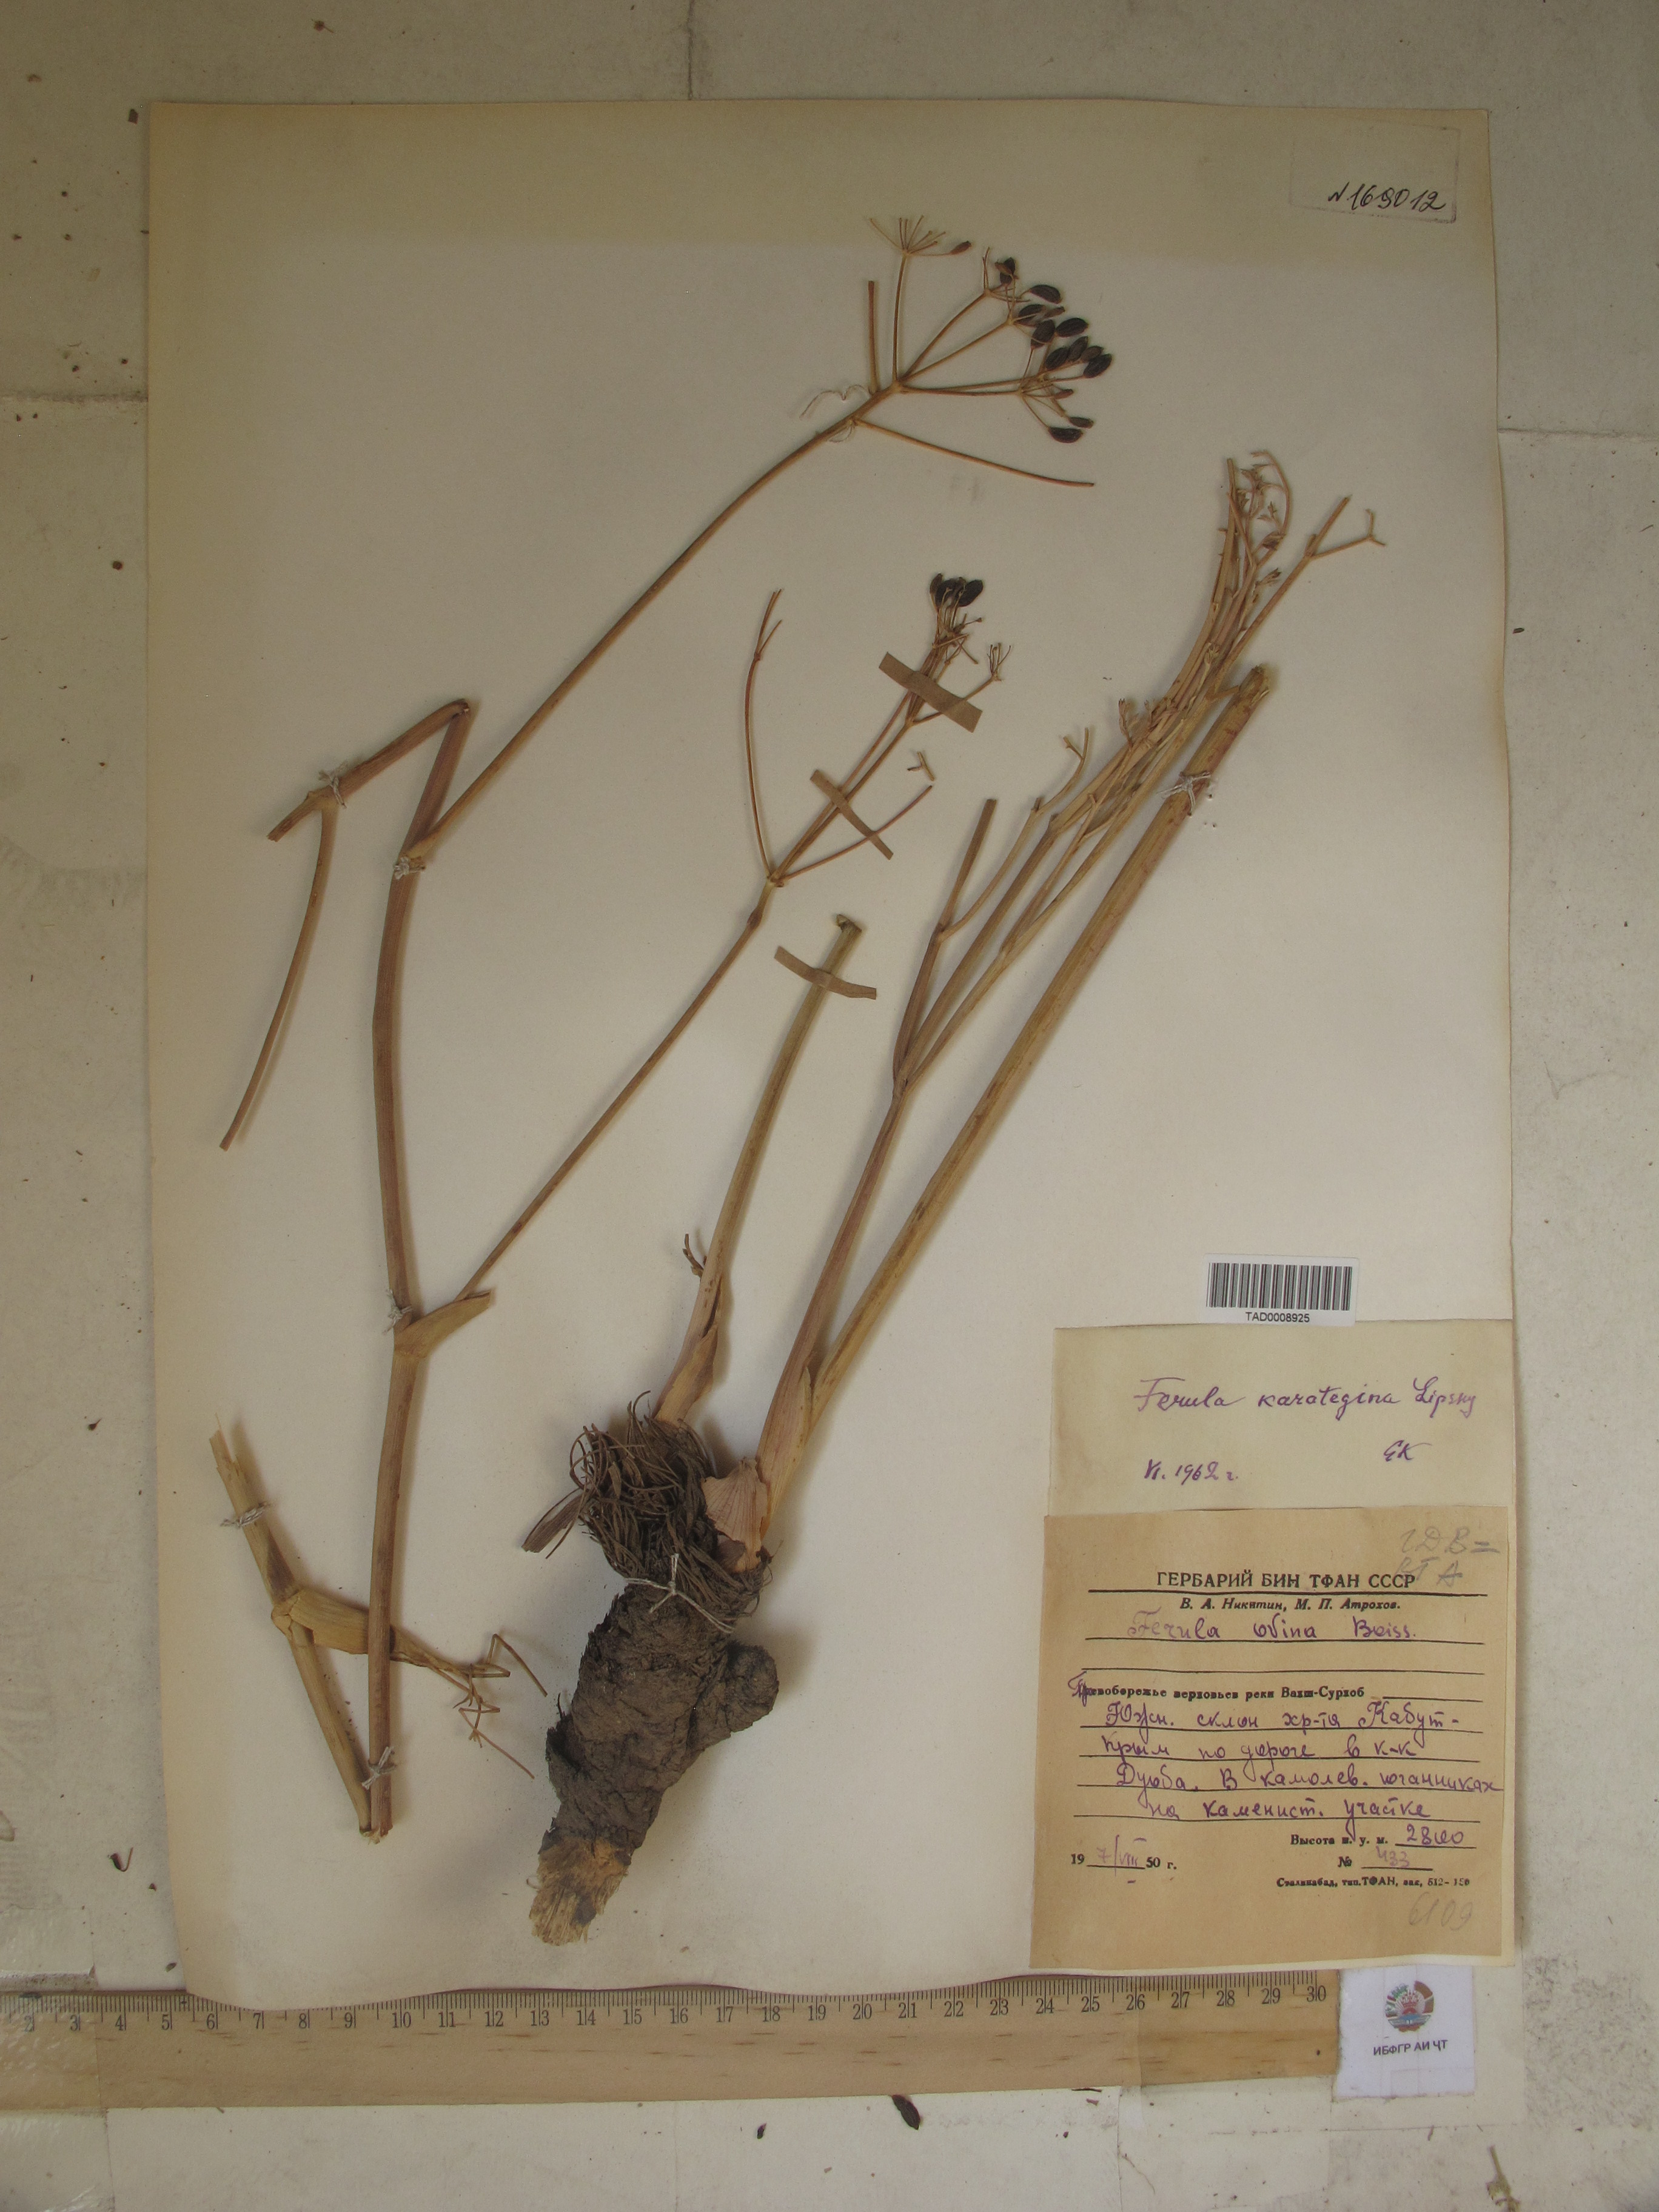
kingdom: Plantae
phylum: Tracheophyta
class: Magnoliopsida
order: Apiales
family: Apiaceae
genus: Ferula
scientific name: Ferula karategina
